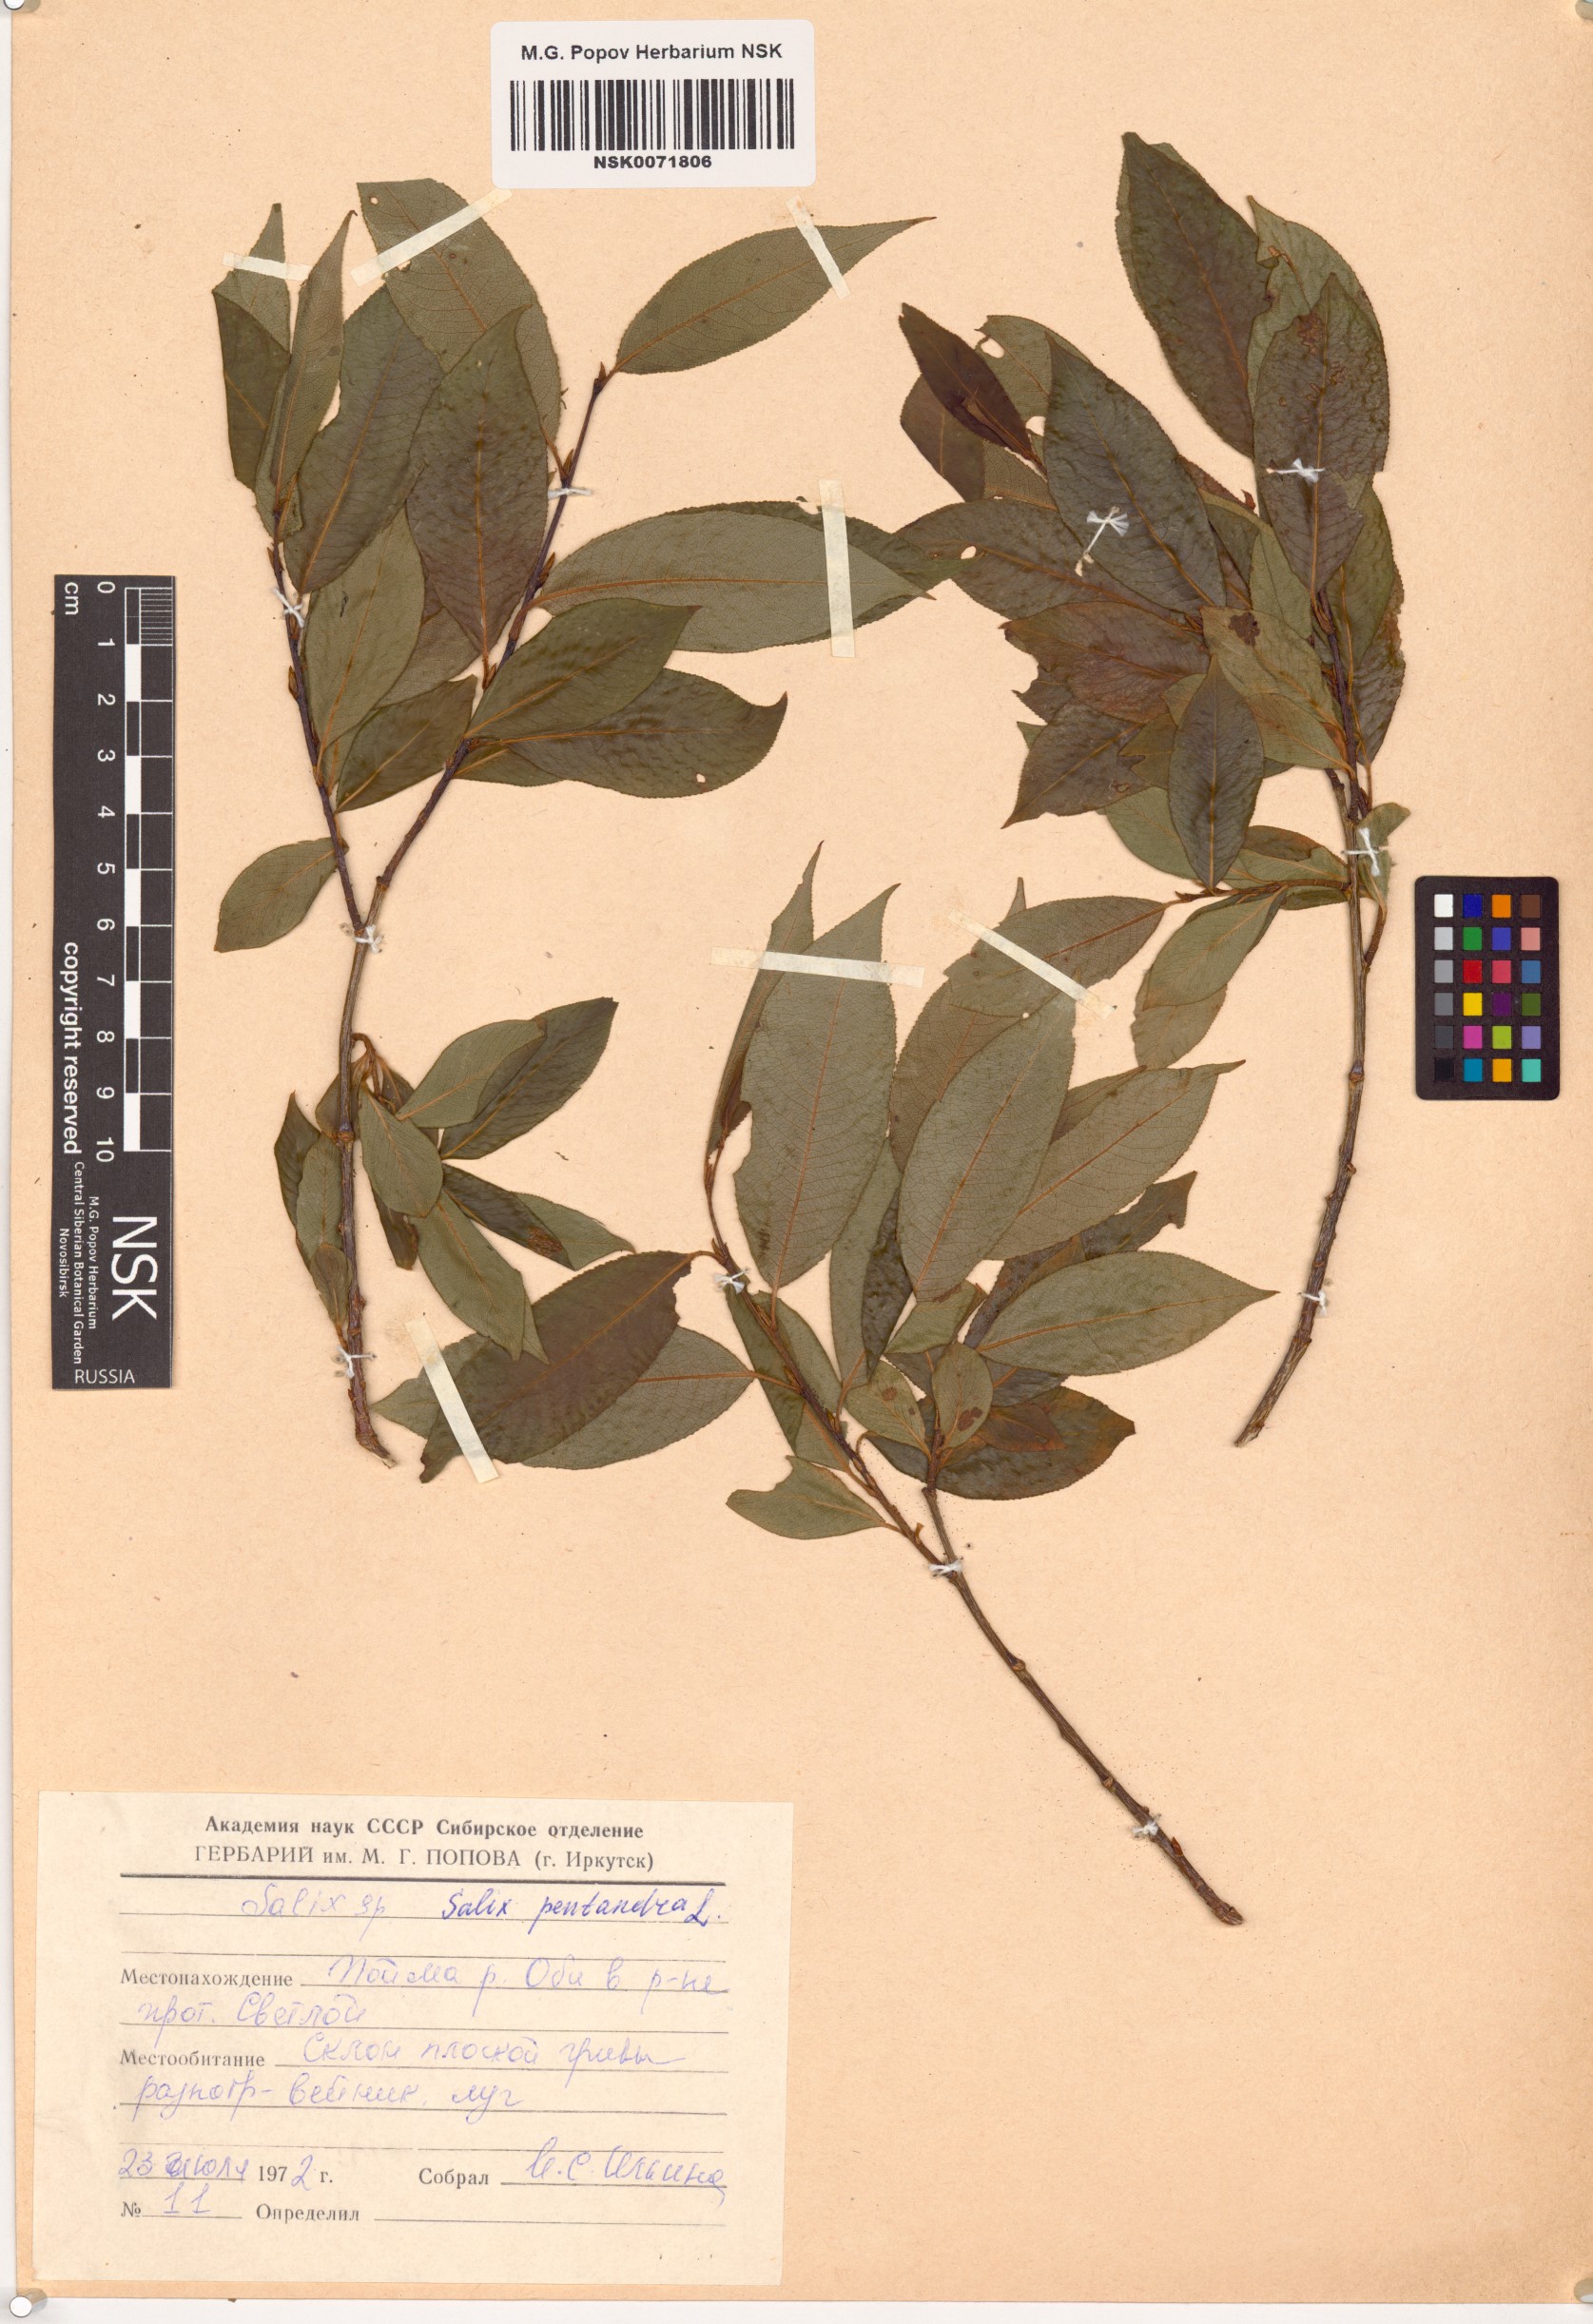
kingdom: Plantae
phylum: Tracheophyta
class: Magnoliopsida
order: Malpighiales
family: Salicaceae
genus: Salix
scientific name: Salix pseudopentandra
